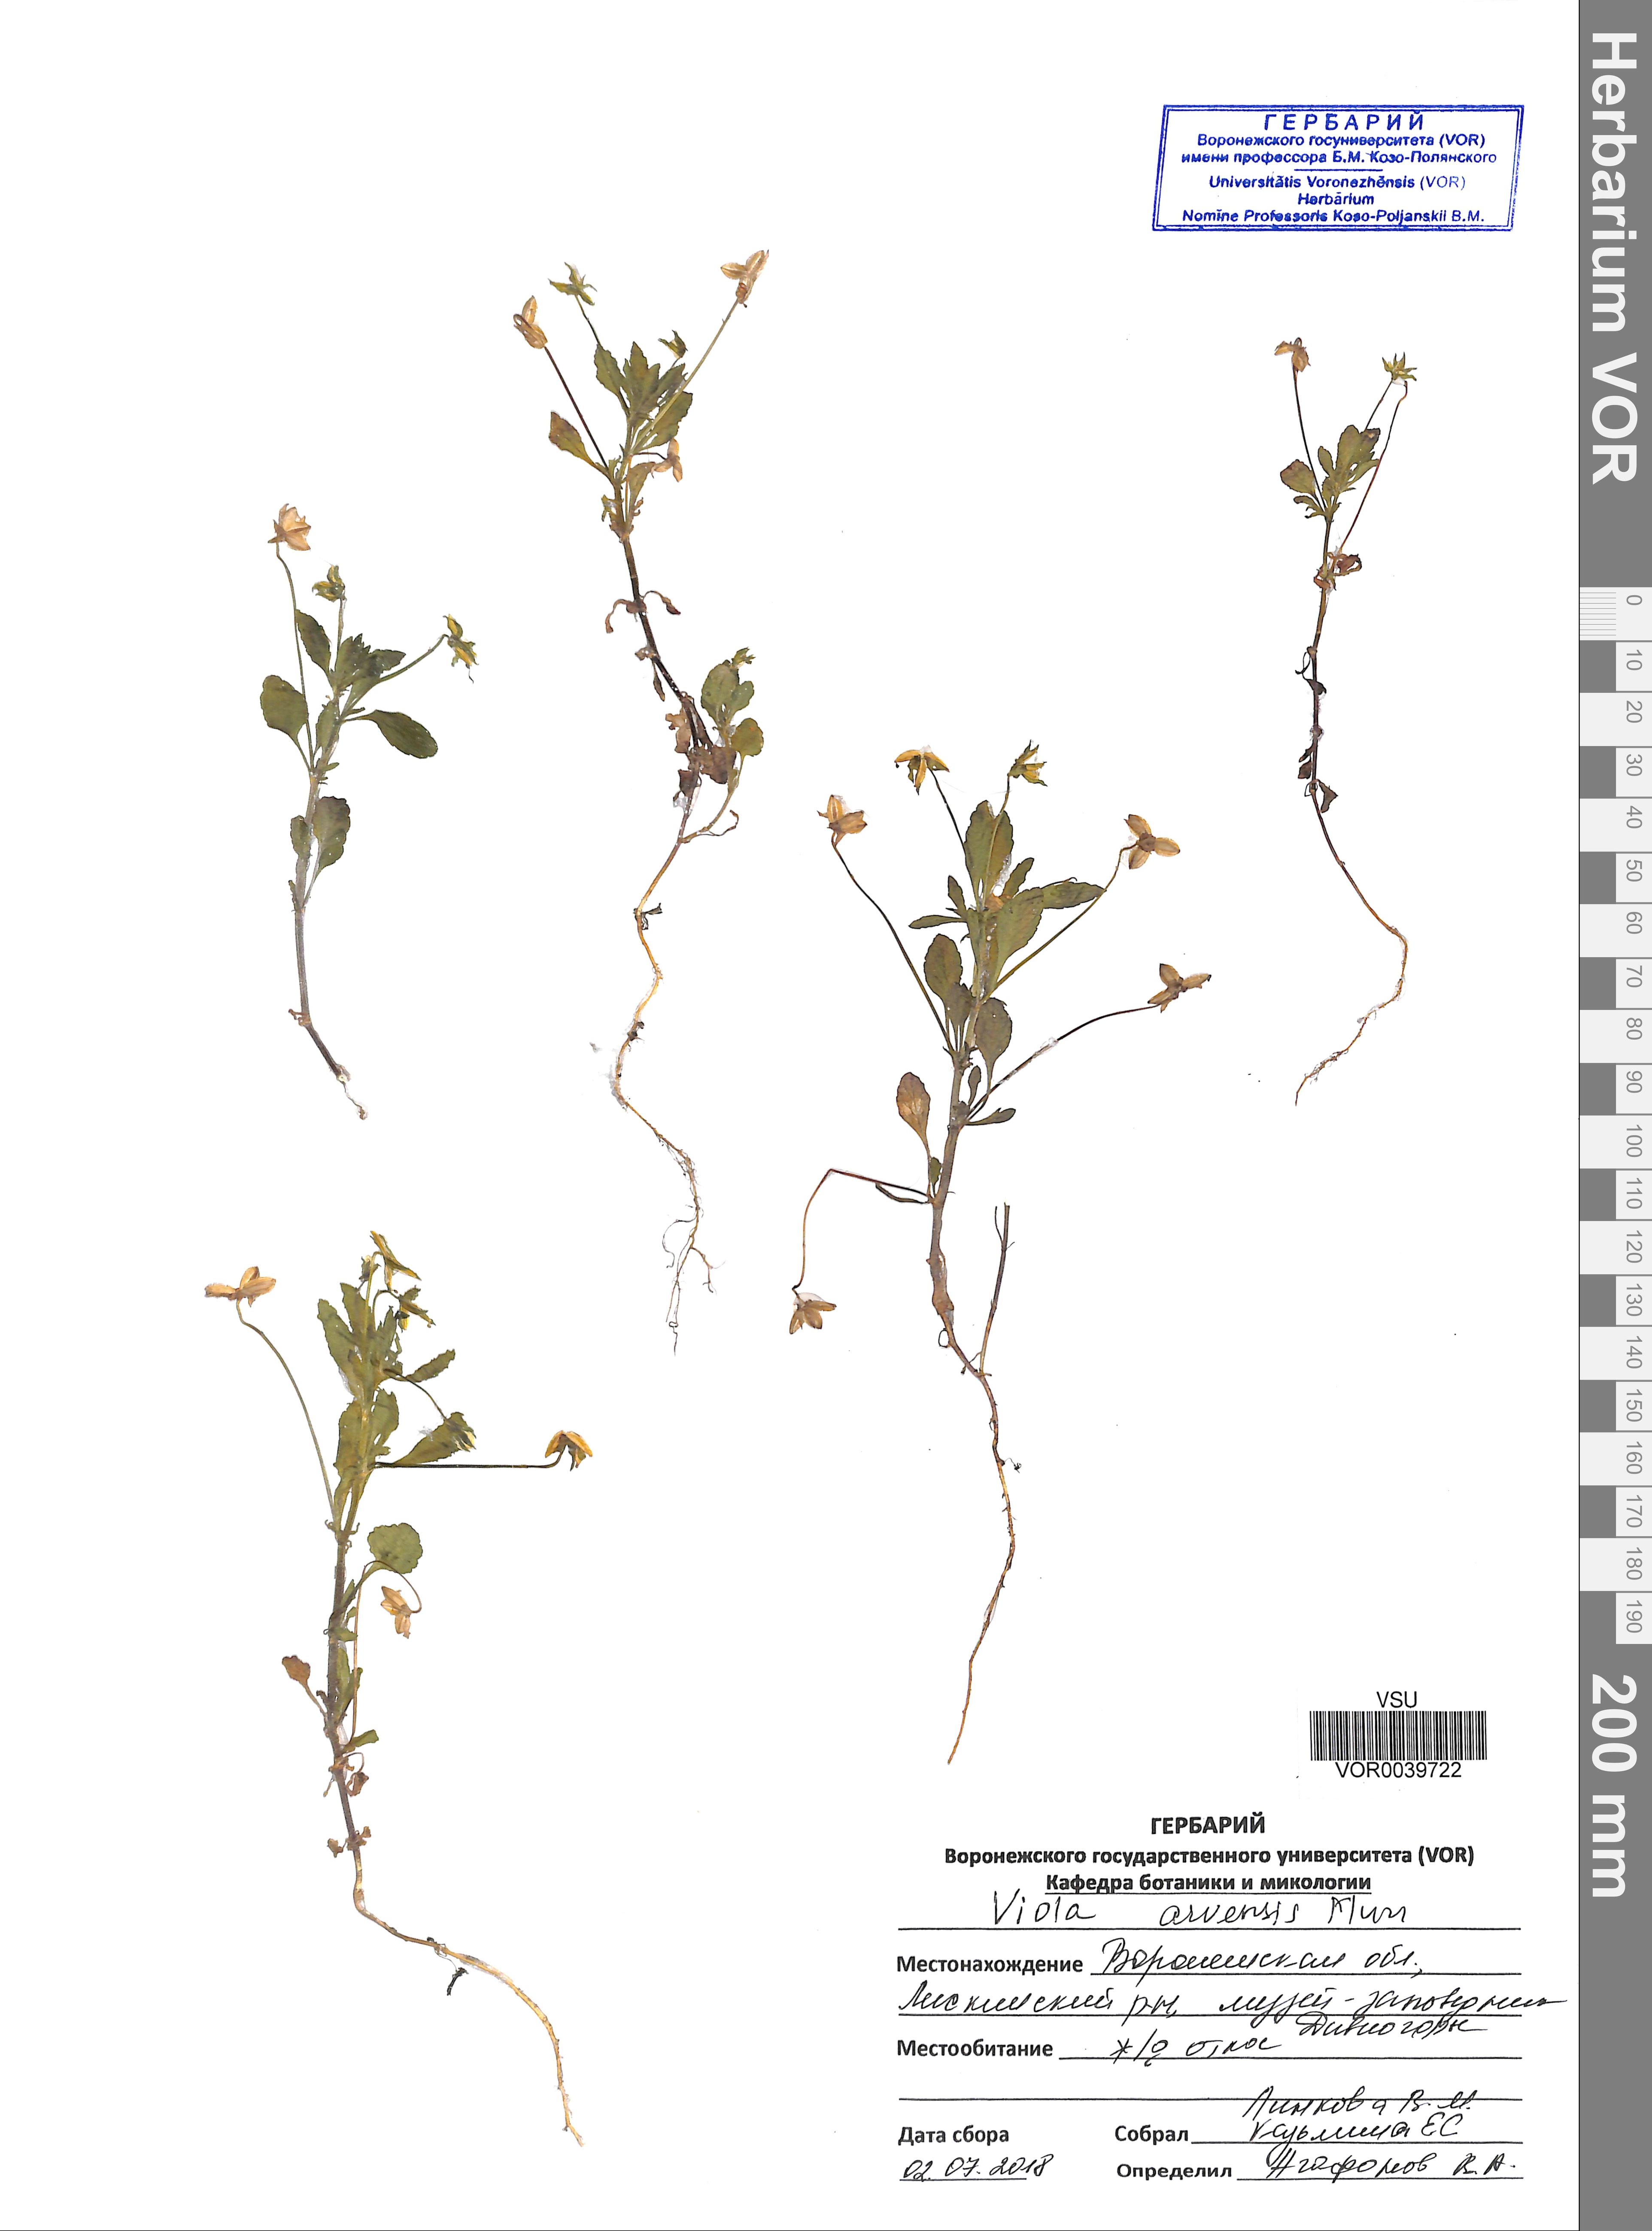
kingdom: Plantae
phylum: Tracheophyta
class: Magnoliopsida
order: Malpighiales
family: Violaceae
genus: Viola
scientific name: Viola arvensis
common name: Field pansy
